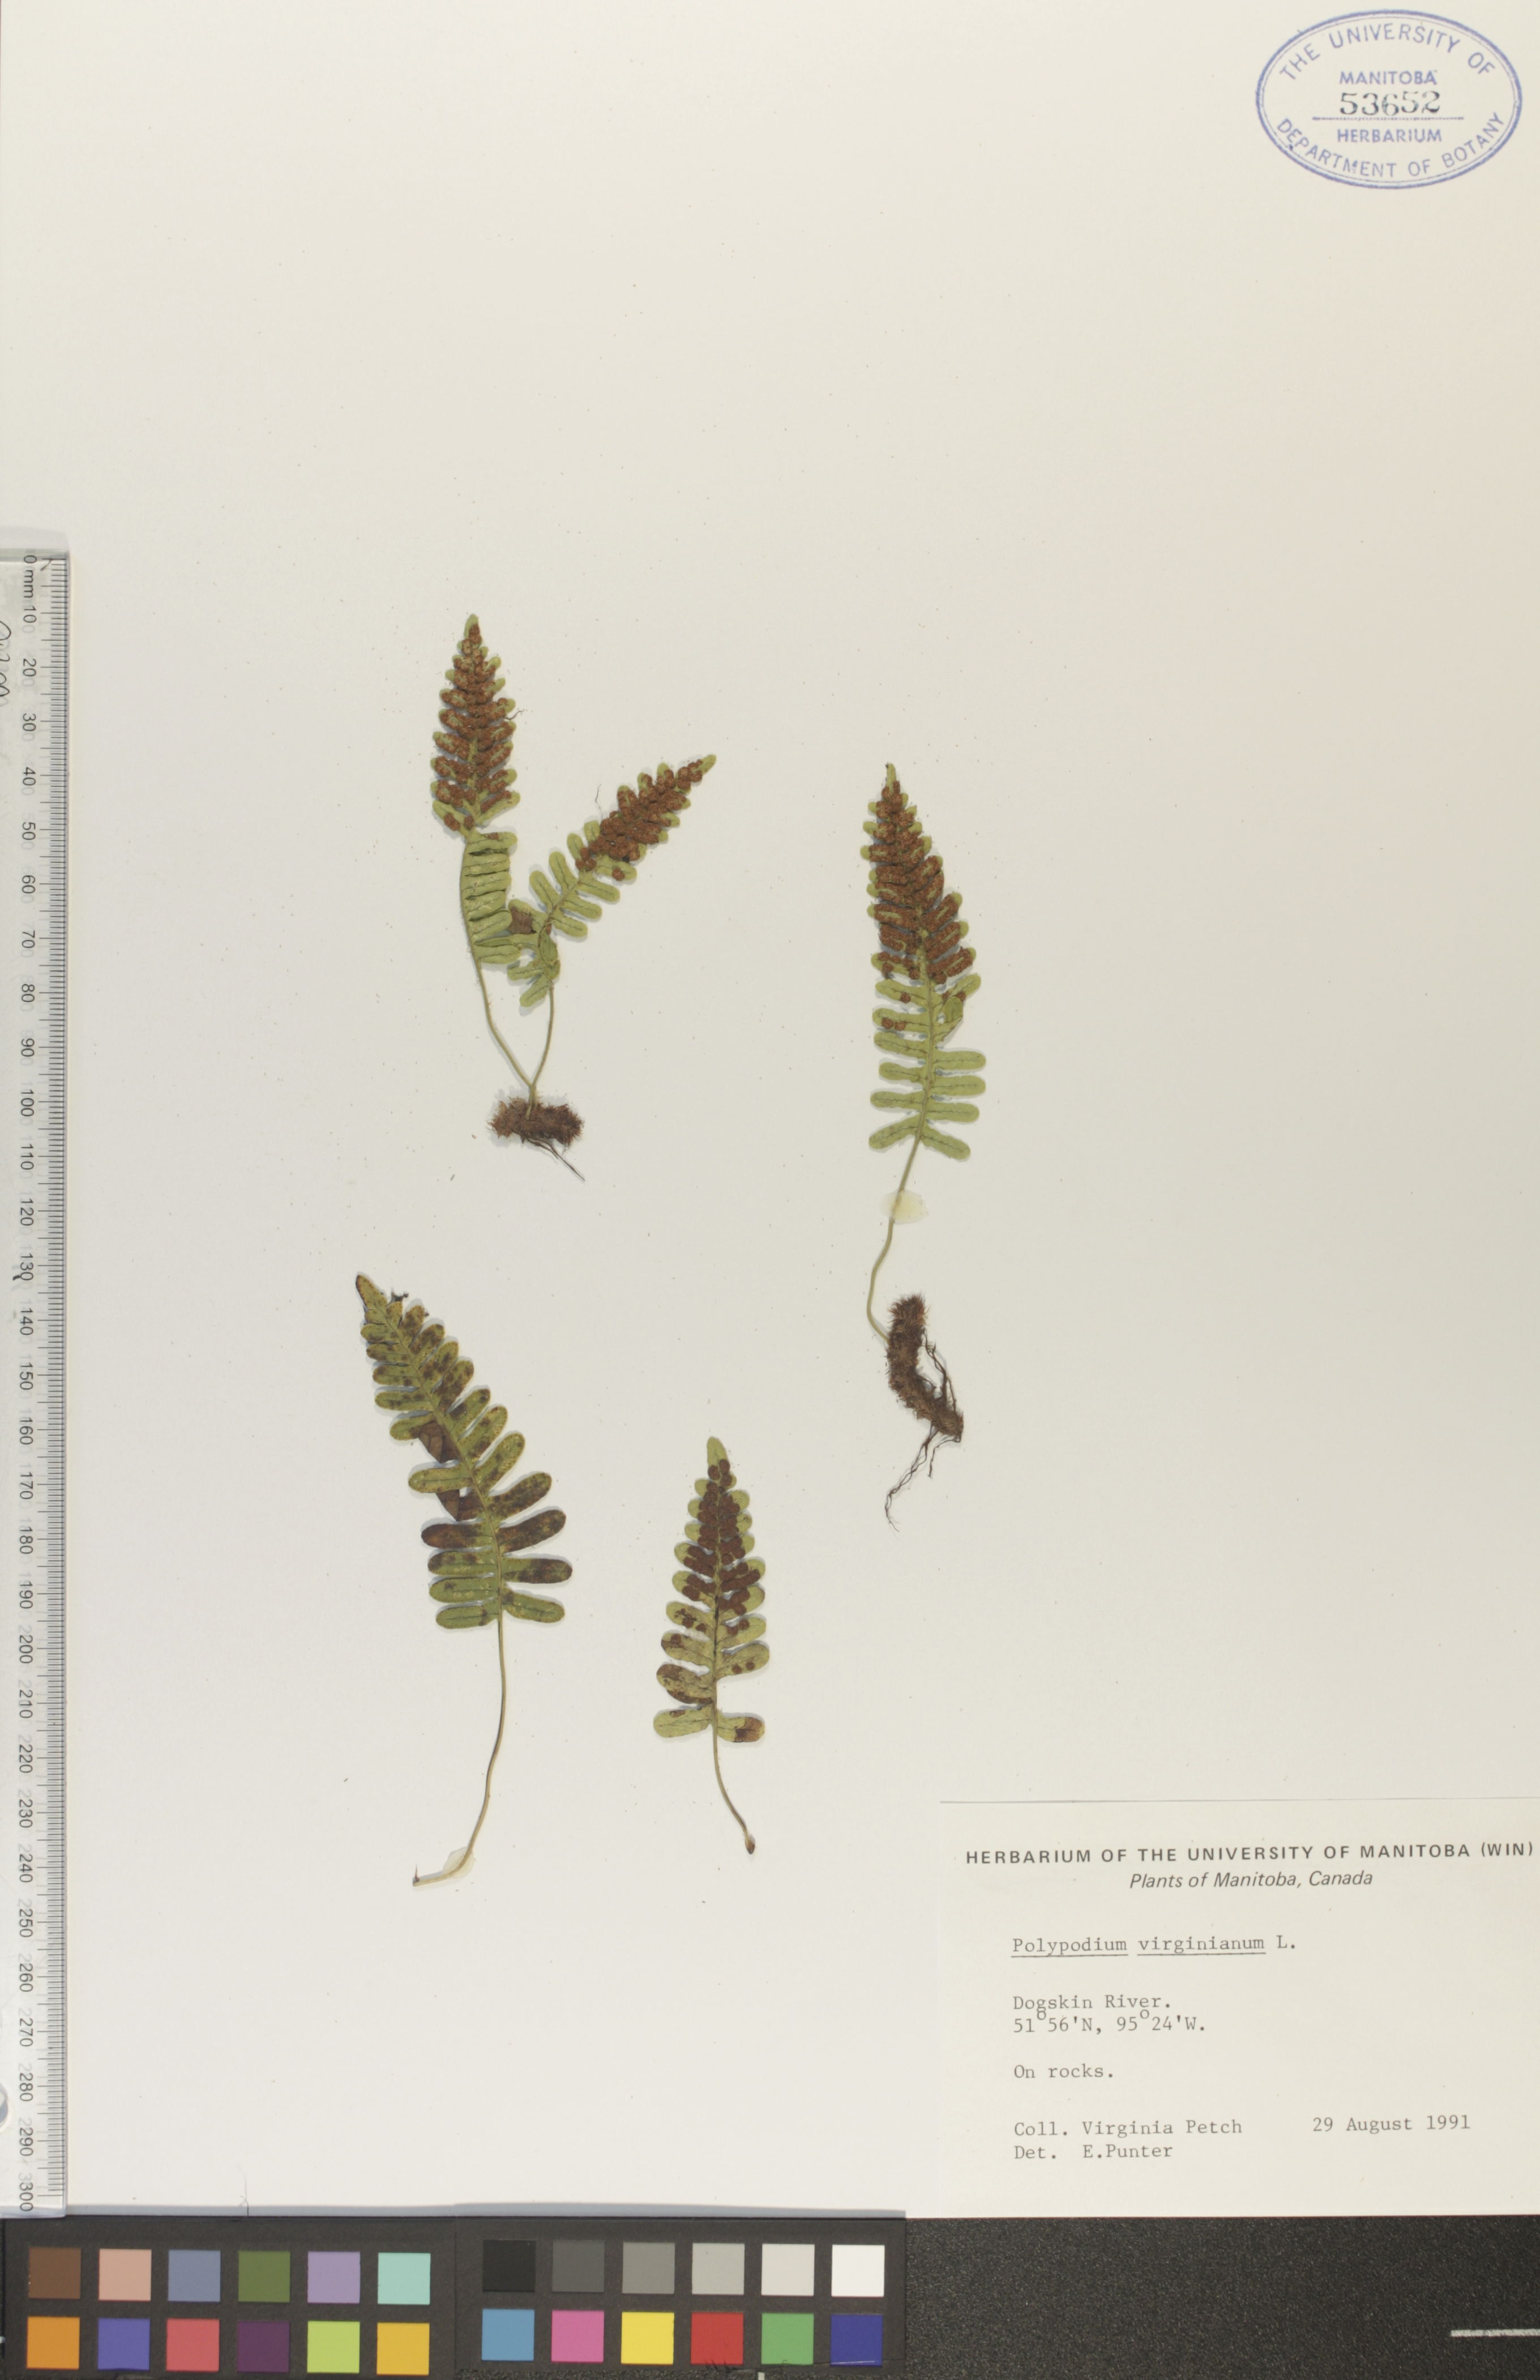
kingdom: Plantae
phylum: Tracheophyta
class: Polypodiopsida
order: Polypodiales
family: Polypodiaceae
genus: Polypodium
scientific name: Polypodium virginianum
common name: American wall fern
